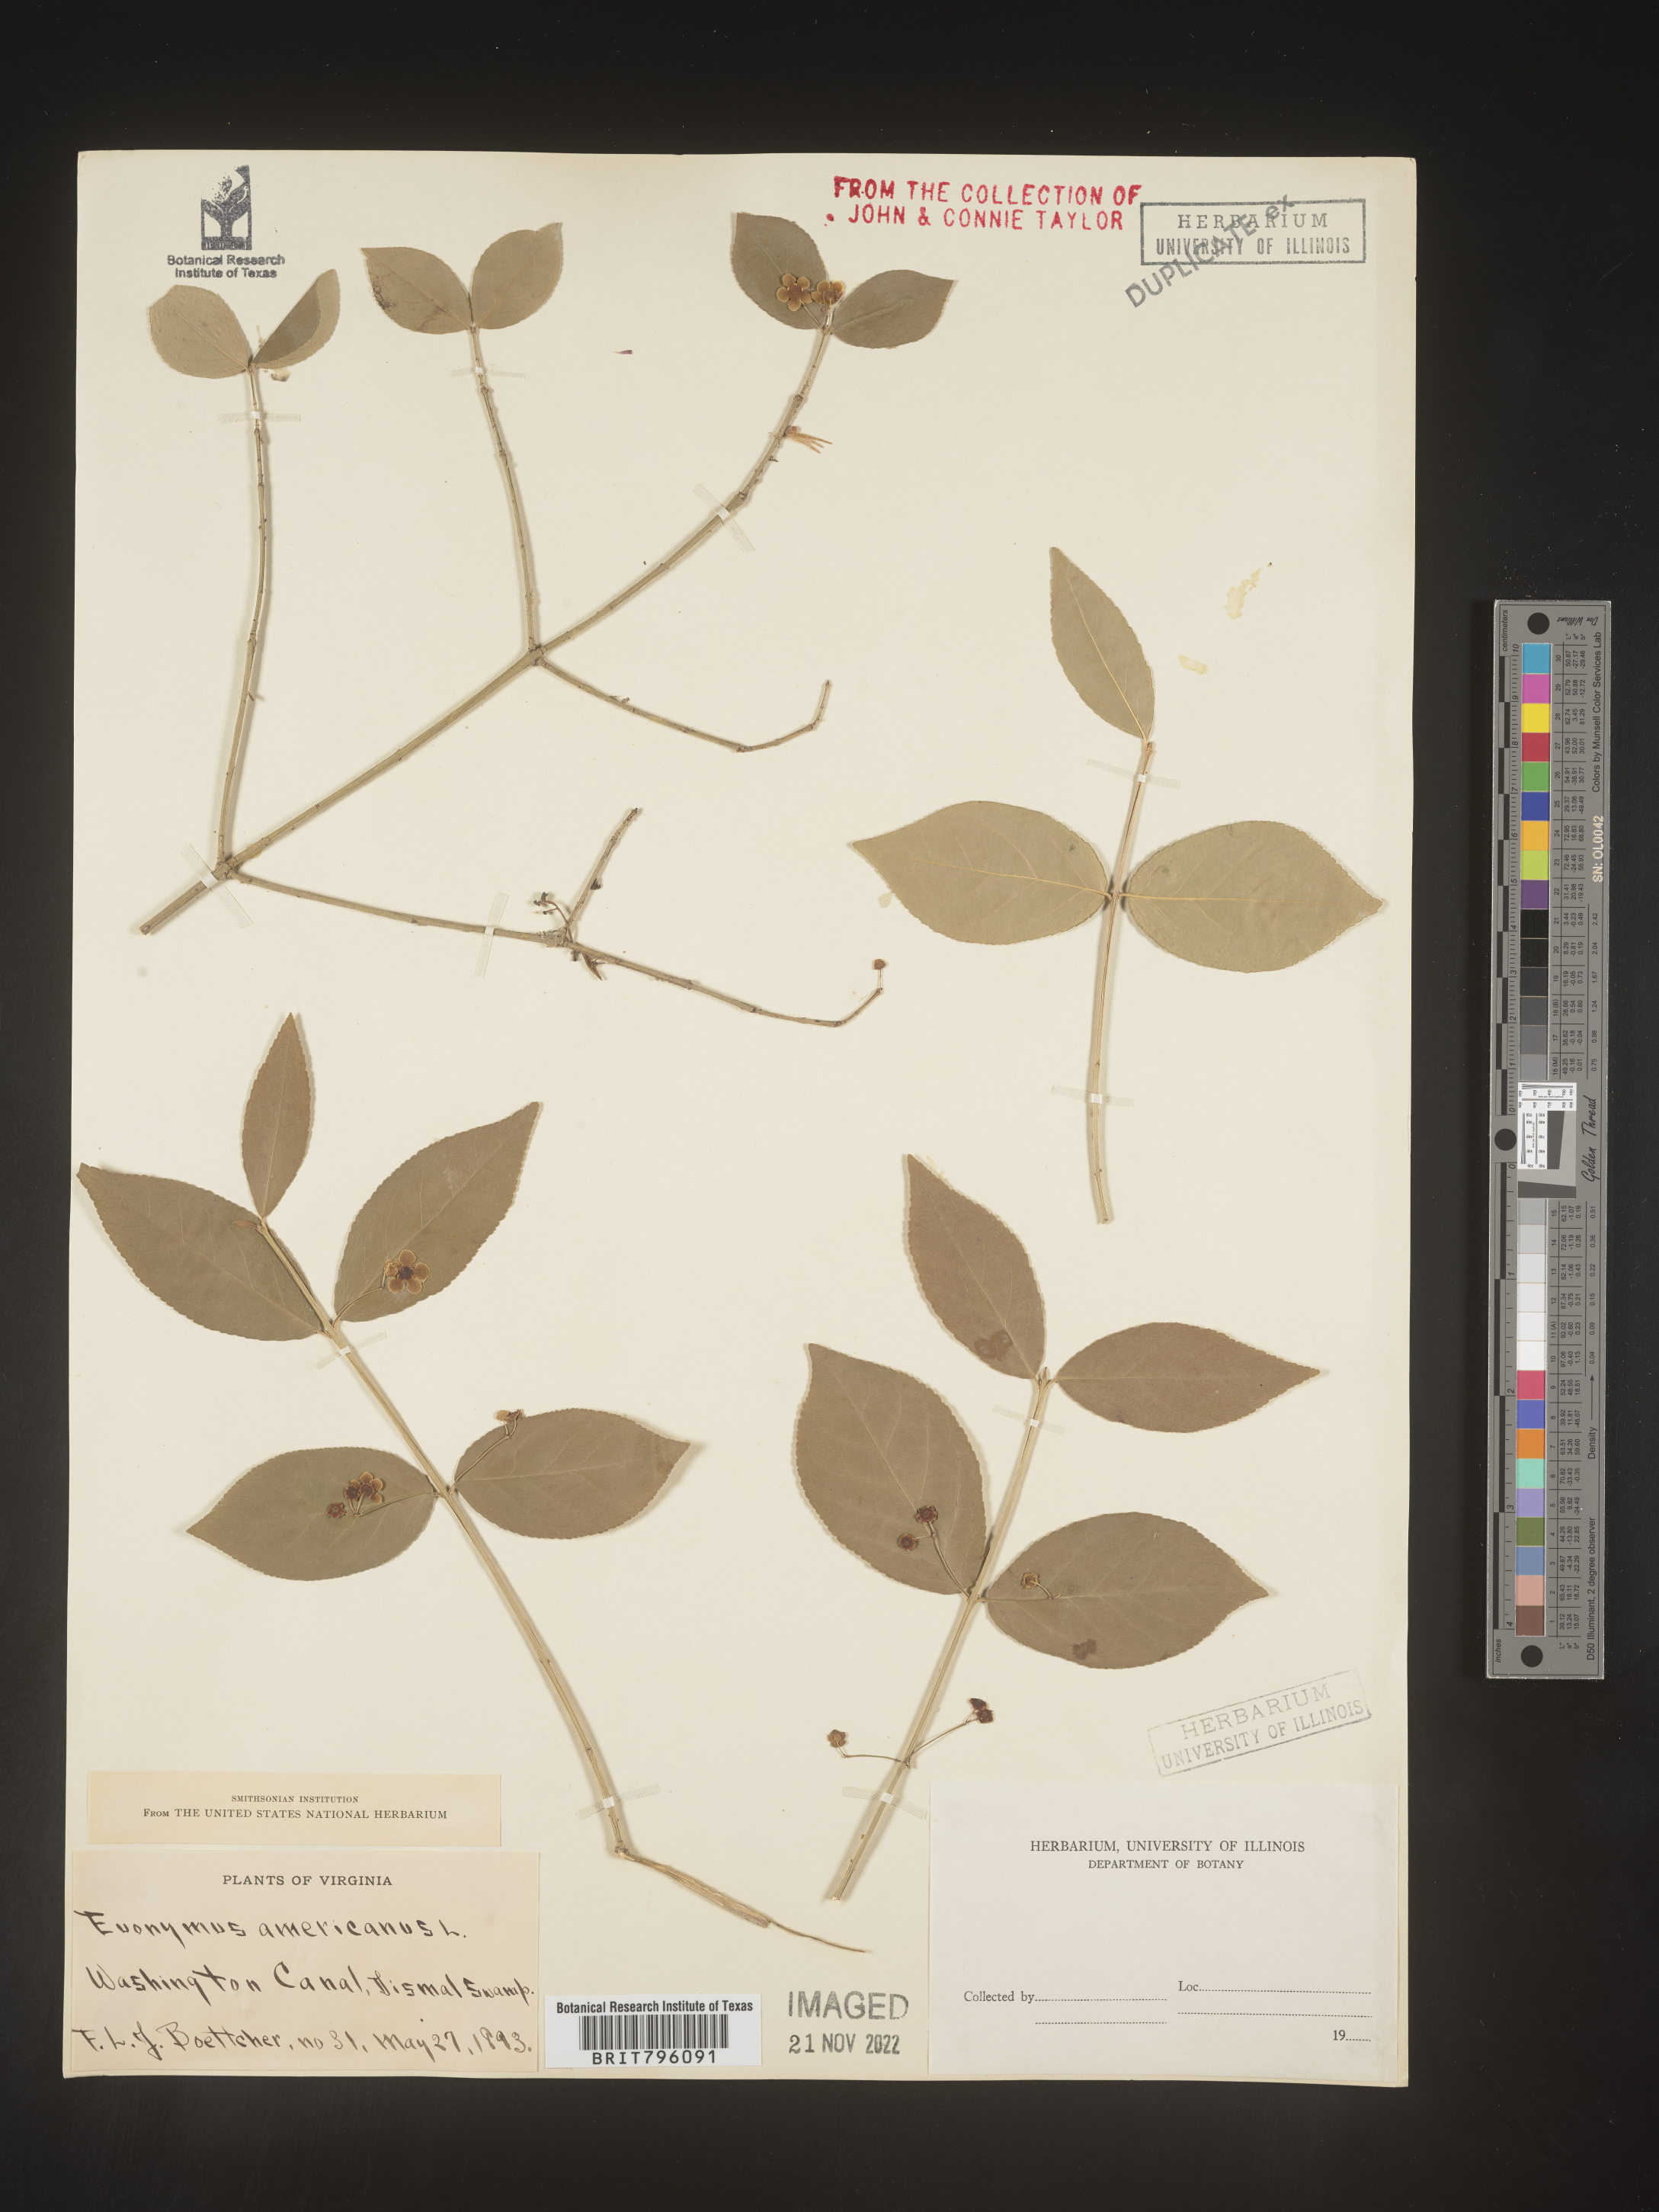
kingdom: Plantae
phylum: Tracheophyta
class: Magnoliopsida
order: Celastrales
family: Celastraceae
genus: Euonymus
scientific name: Euonymus americanus
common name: Bursting-heart
